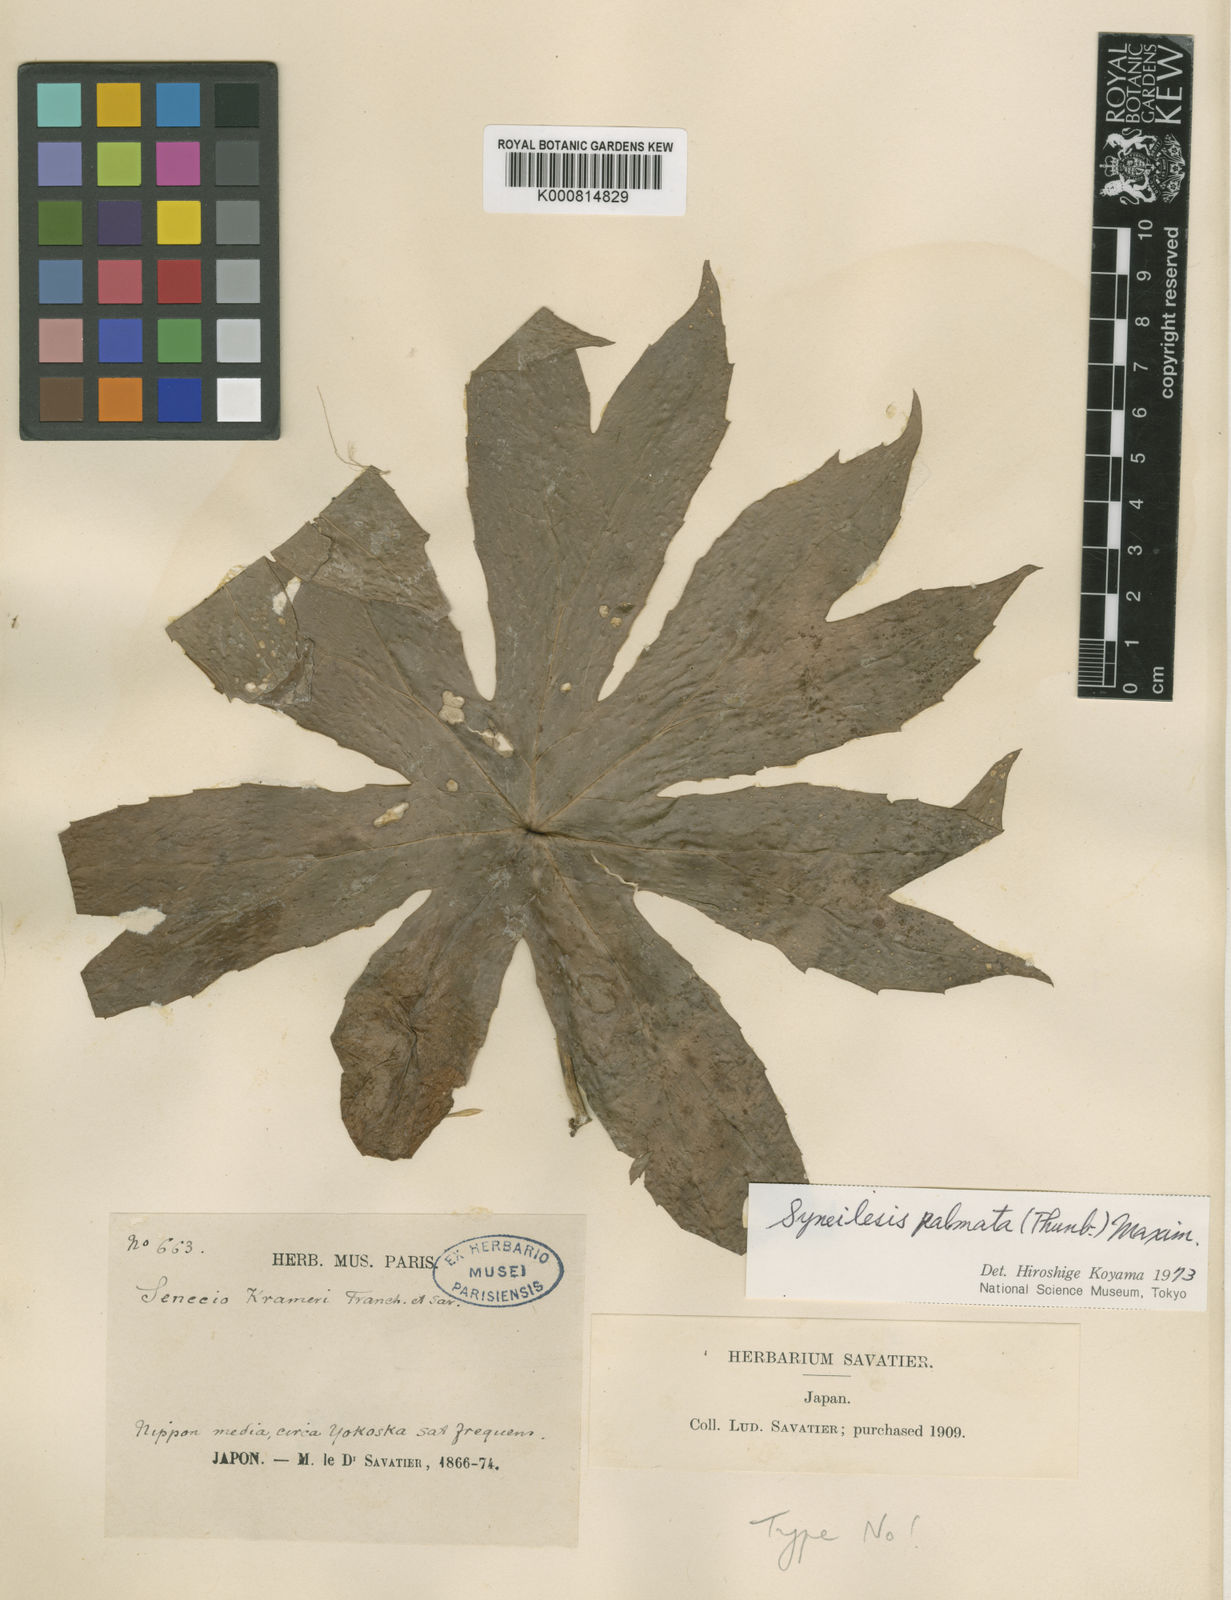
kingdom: Plantae
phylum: Tracheophyta
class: Magnoliopsida
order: Asterales
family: Asteraceae
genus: Syneilesis
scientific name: Syneilesis palmata
